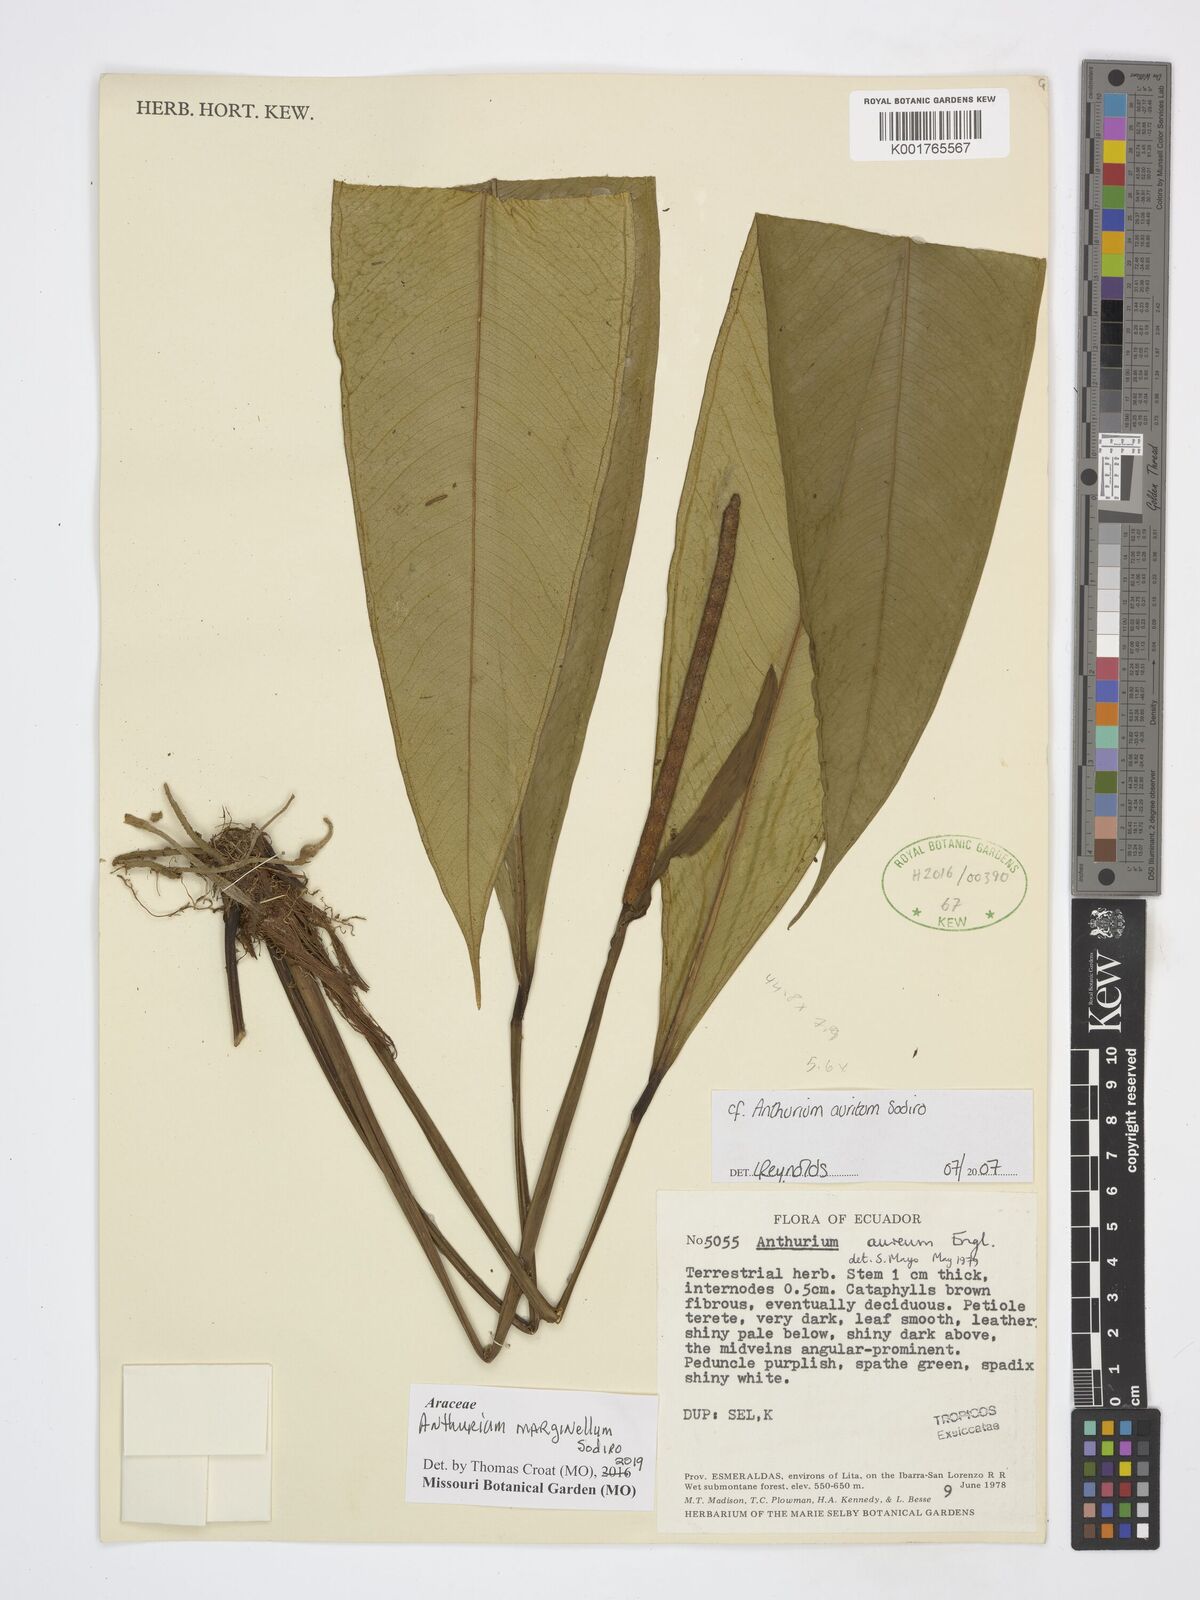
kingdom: Plantae
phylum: Tracheophyta
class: Liliopsida
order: Alismatales
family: Araceae
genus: Anthurium
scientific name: Anthurium marginellum
